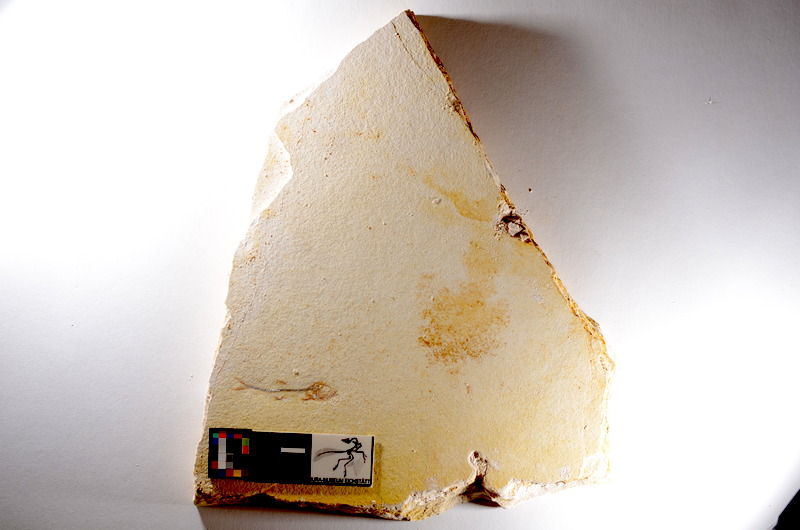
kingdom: Animalia
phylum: Chordata
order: Salmoniformes
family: Orthogonikleithridae
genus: Orthogonikleithrus
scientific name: Orthogonikleithrus hoelli
